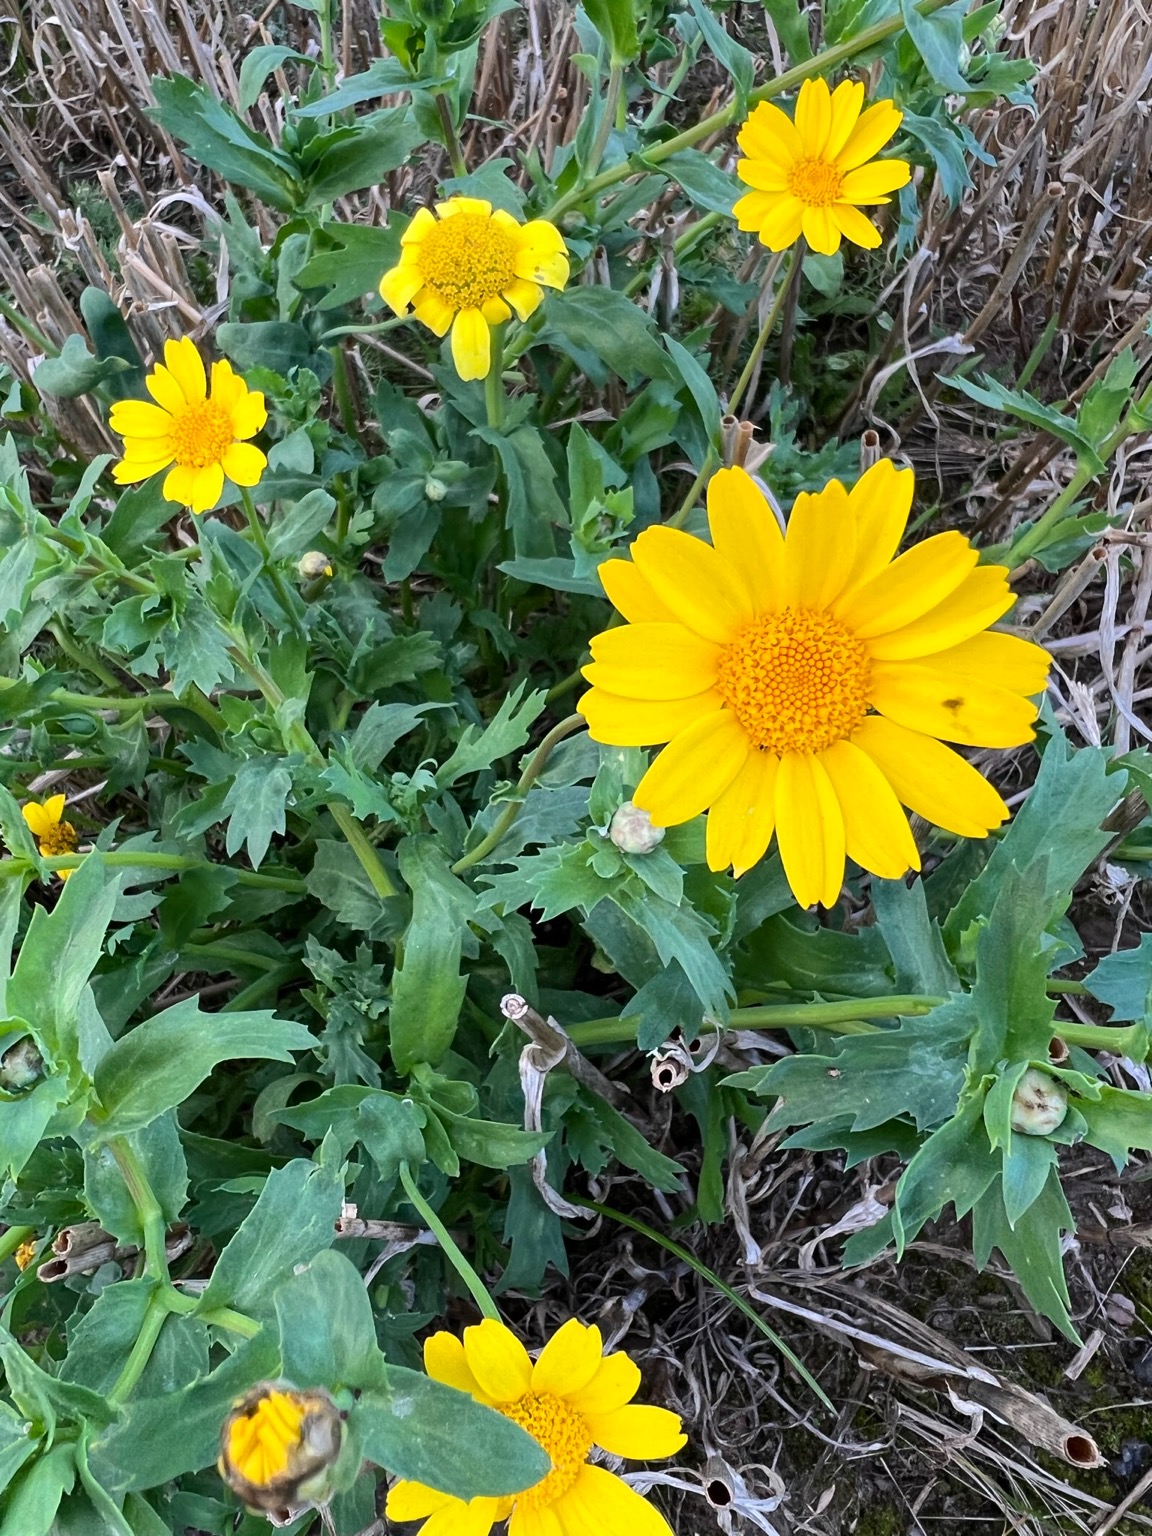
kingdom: Plantae
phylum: Tracheophyta
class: Magnoliopsida
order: Asterales
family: Asteraceae
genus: Glebionis
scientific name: Glebionis segetum
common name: Gul okseøje
